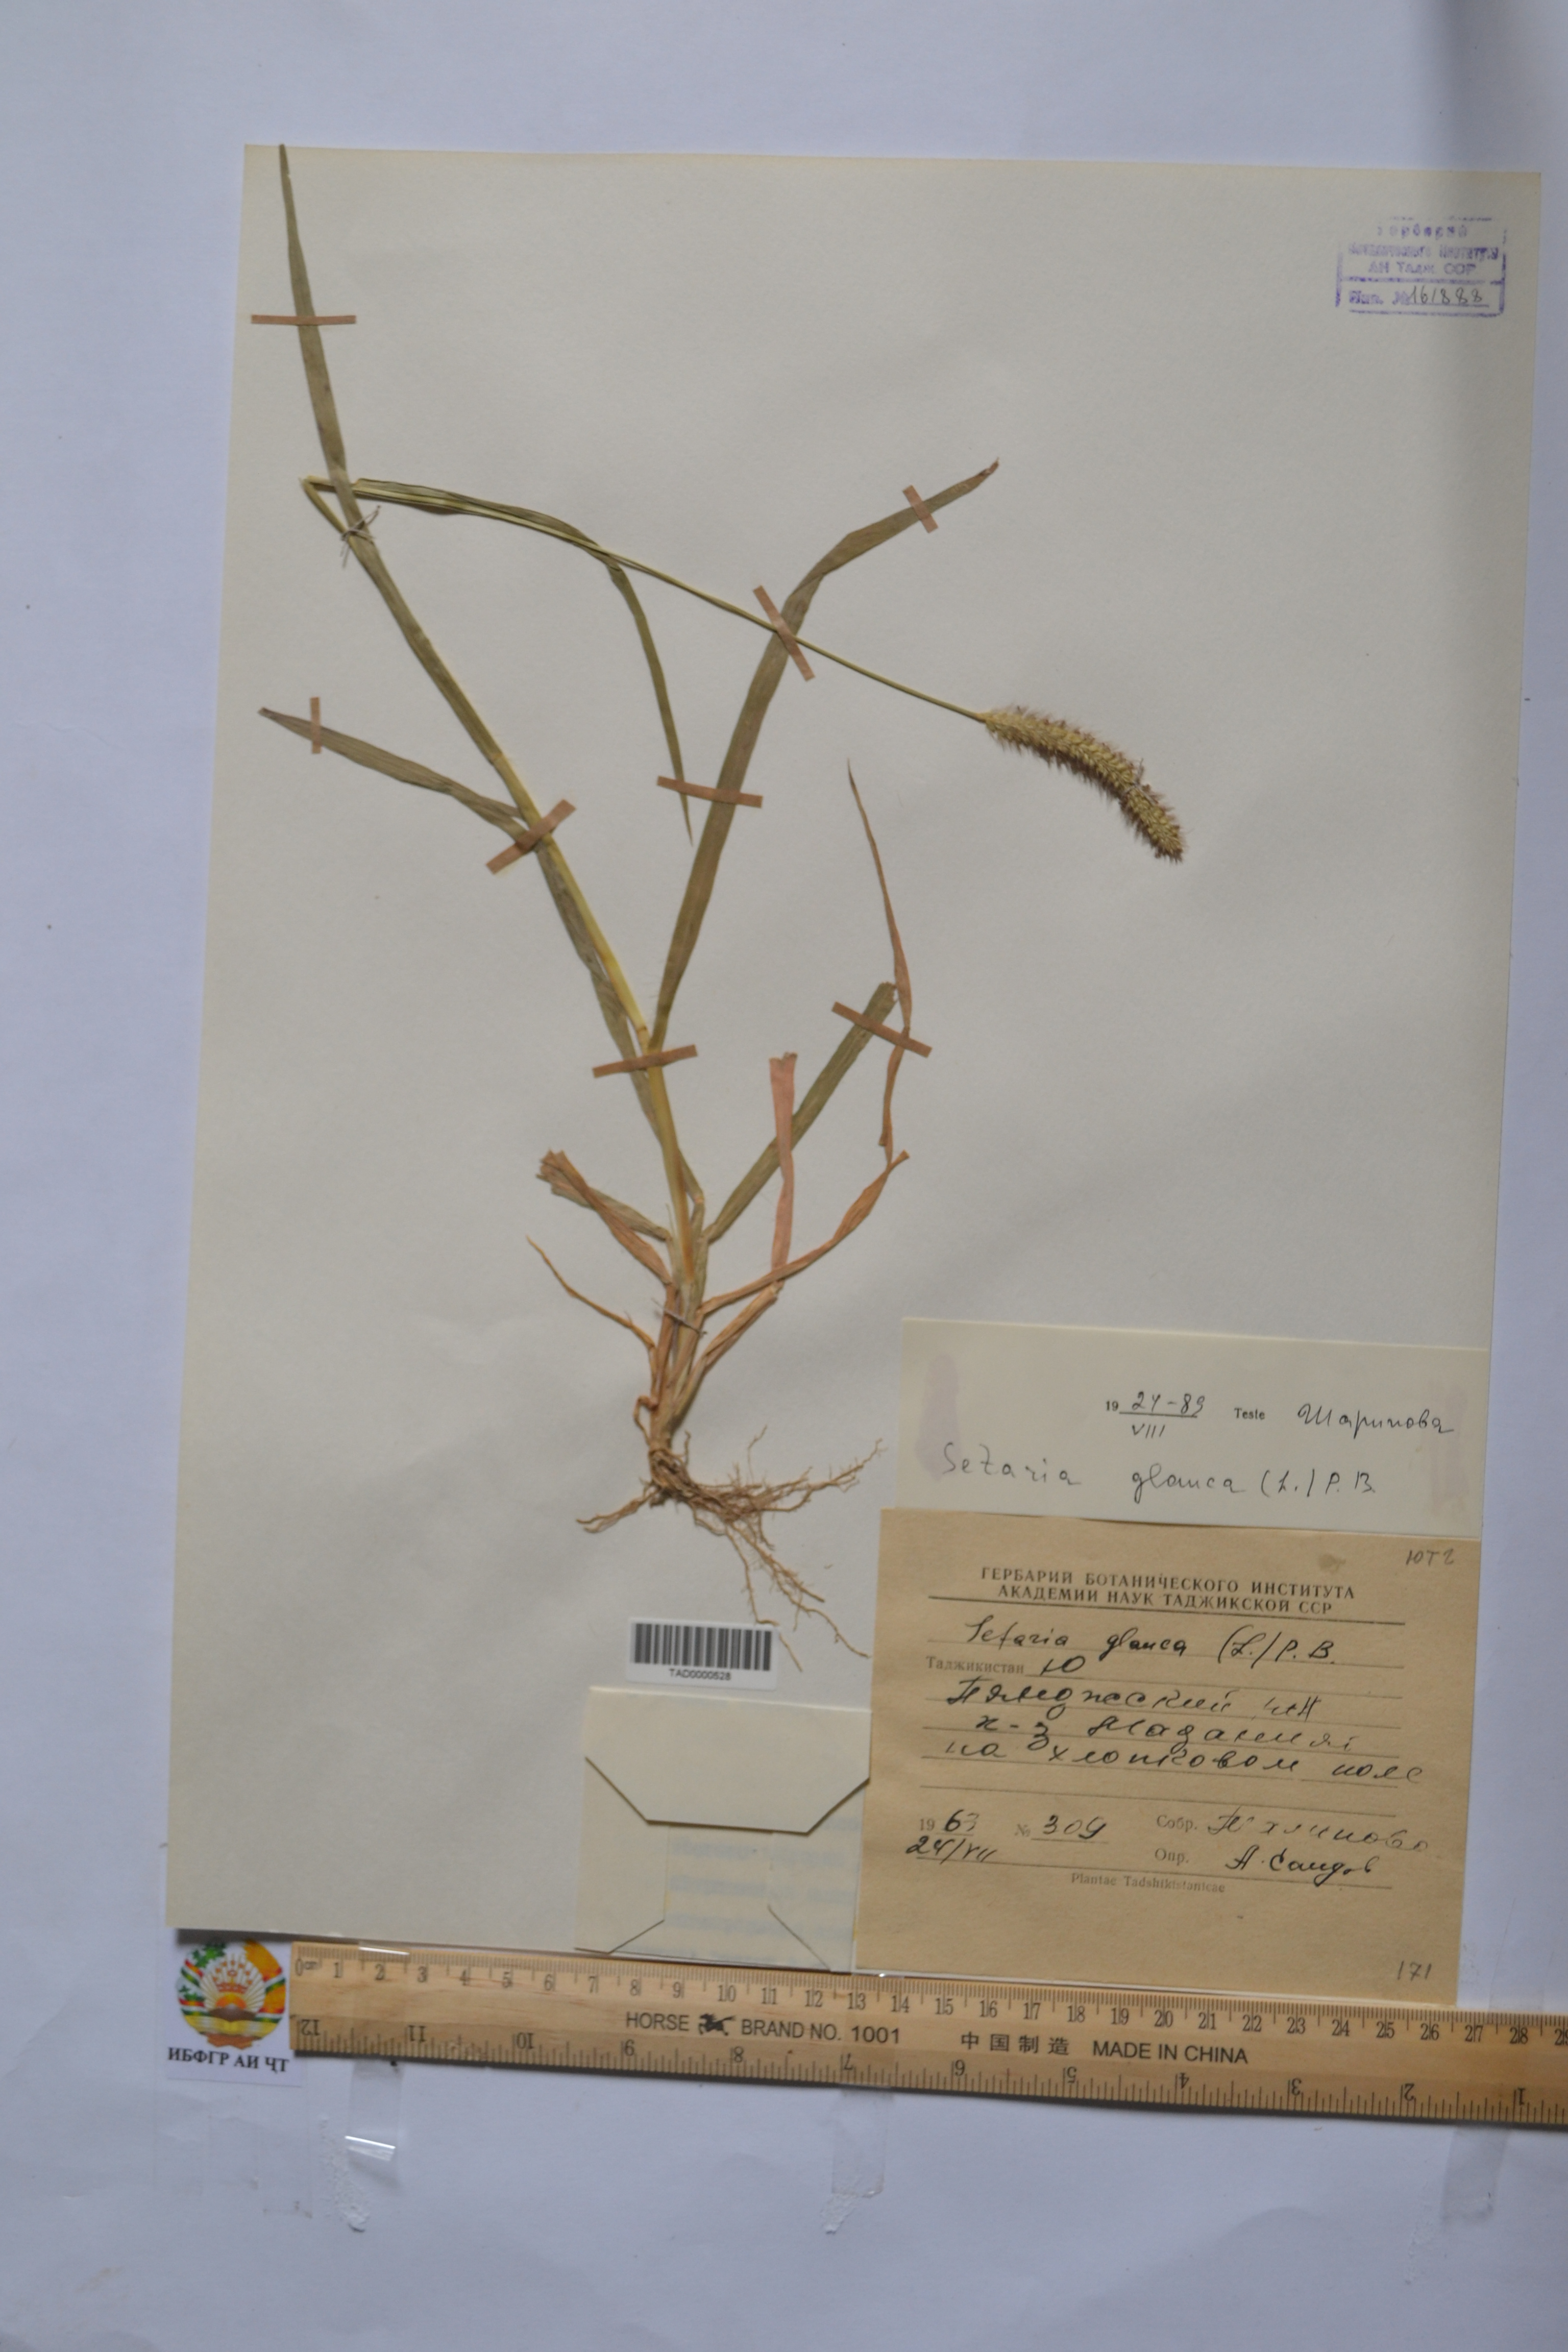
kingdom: Plantae
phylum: Tracheophyta
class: Liliopsida
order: Poales
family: Poaceae
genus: Cenchrus
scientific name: Cenchrus americanus
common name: Pearl millet
